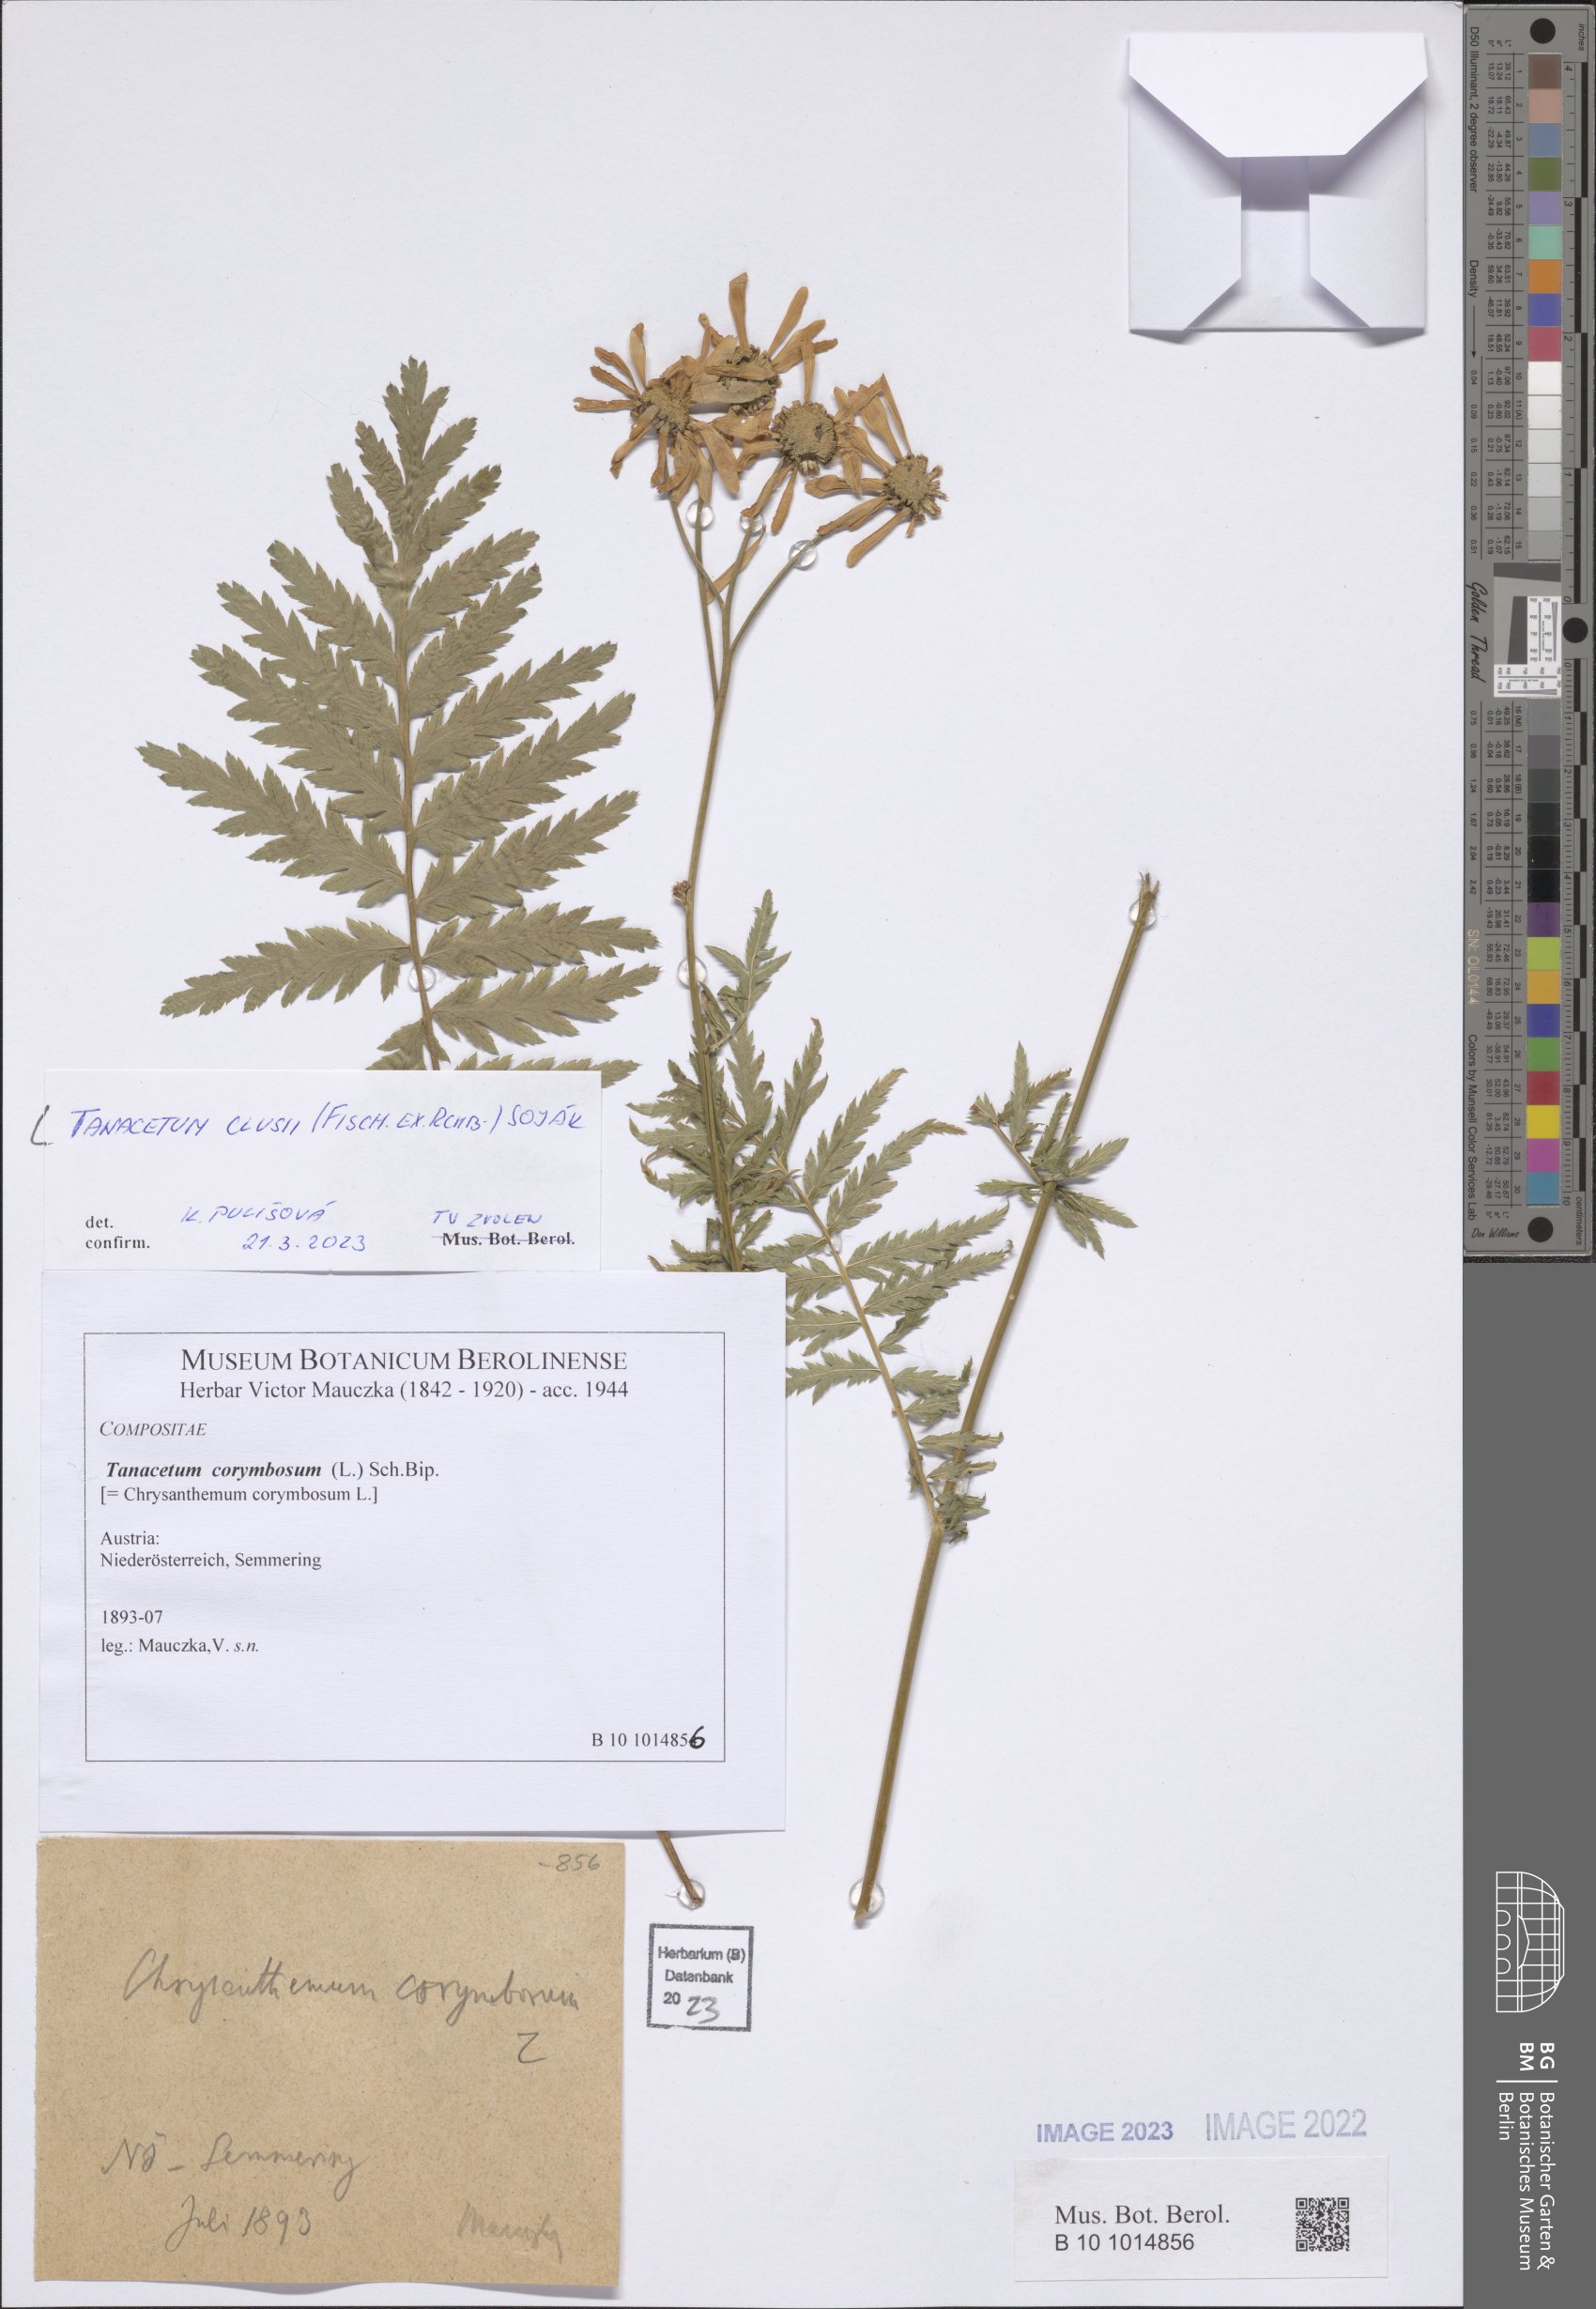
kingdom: Plantae
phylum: Tracheophyta
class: Magnoliopsida
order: Asterales
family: Asteraceae
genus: Tanacetum
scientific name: Tanacetum corymbosum
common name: Scentless feverfew
